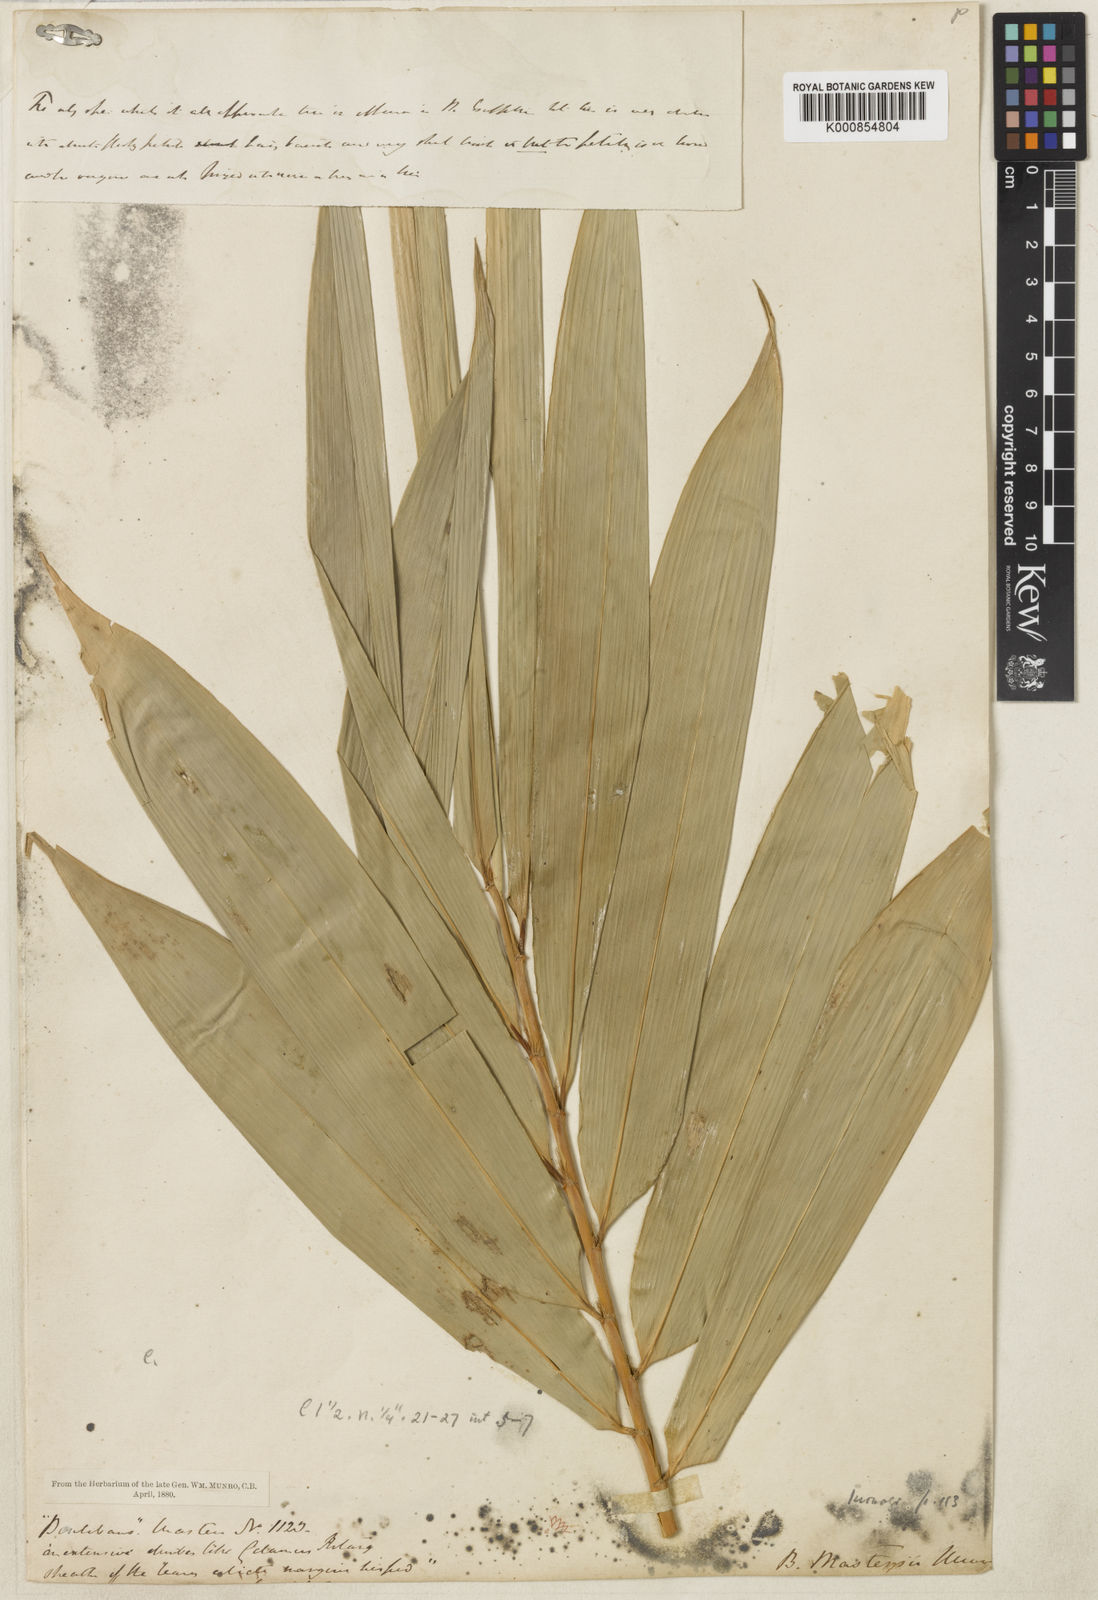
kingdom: Plantae
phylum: Tracheophyta
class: Liliopsida
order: Poales
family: Poaceae
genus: Melocalamus
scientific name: Melocalamus mastersii
